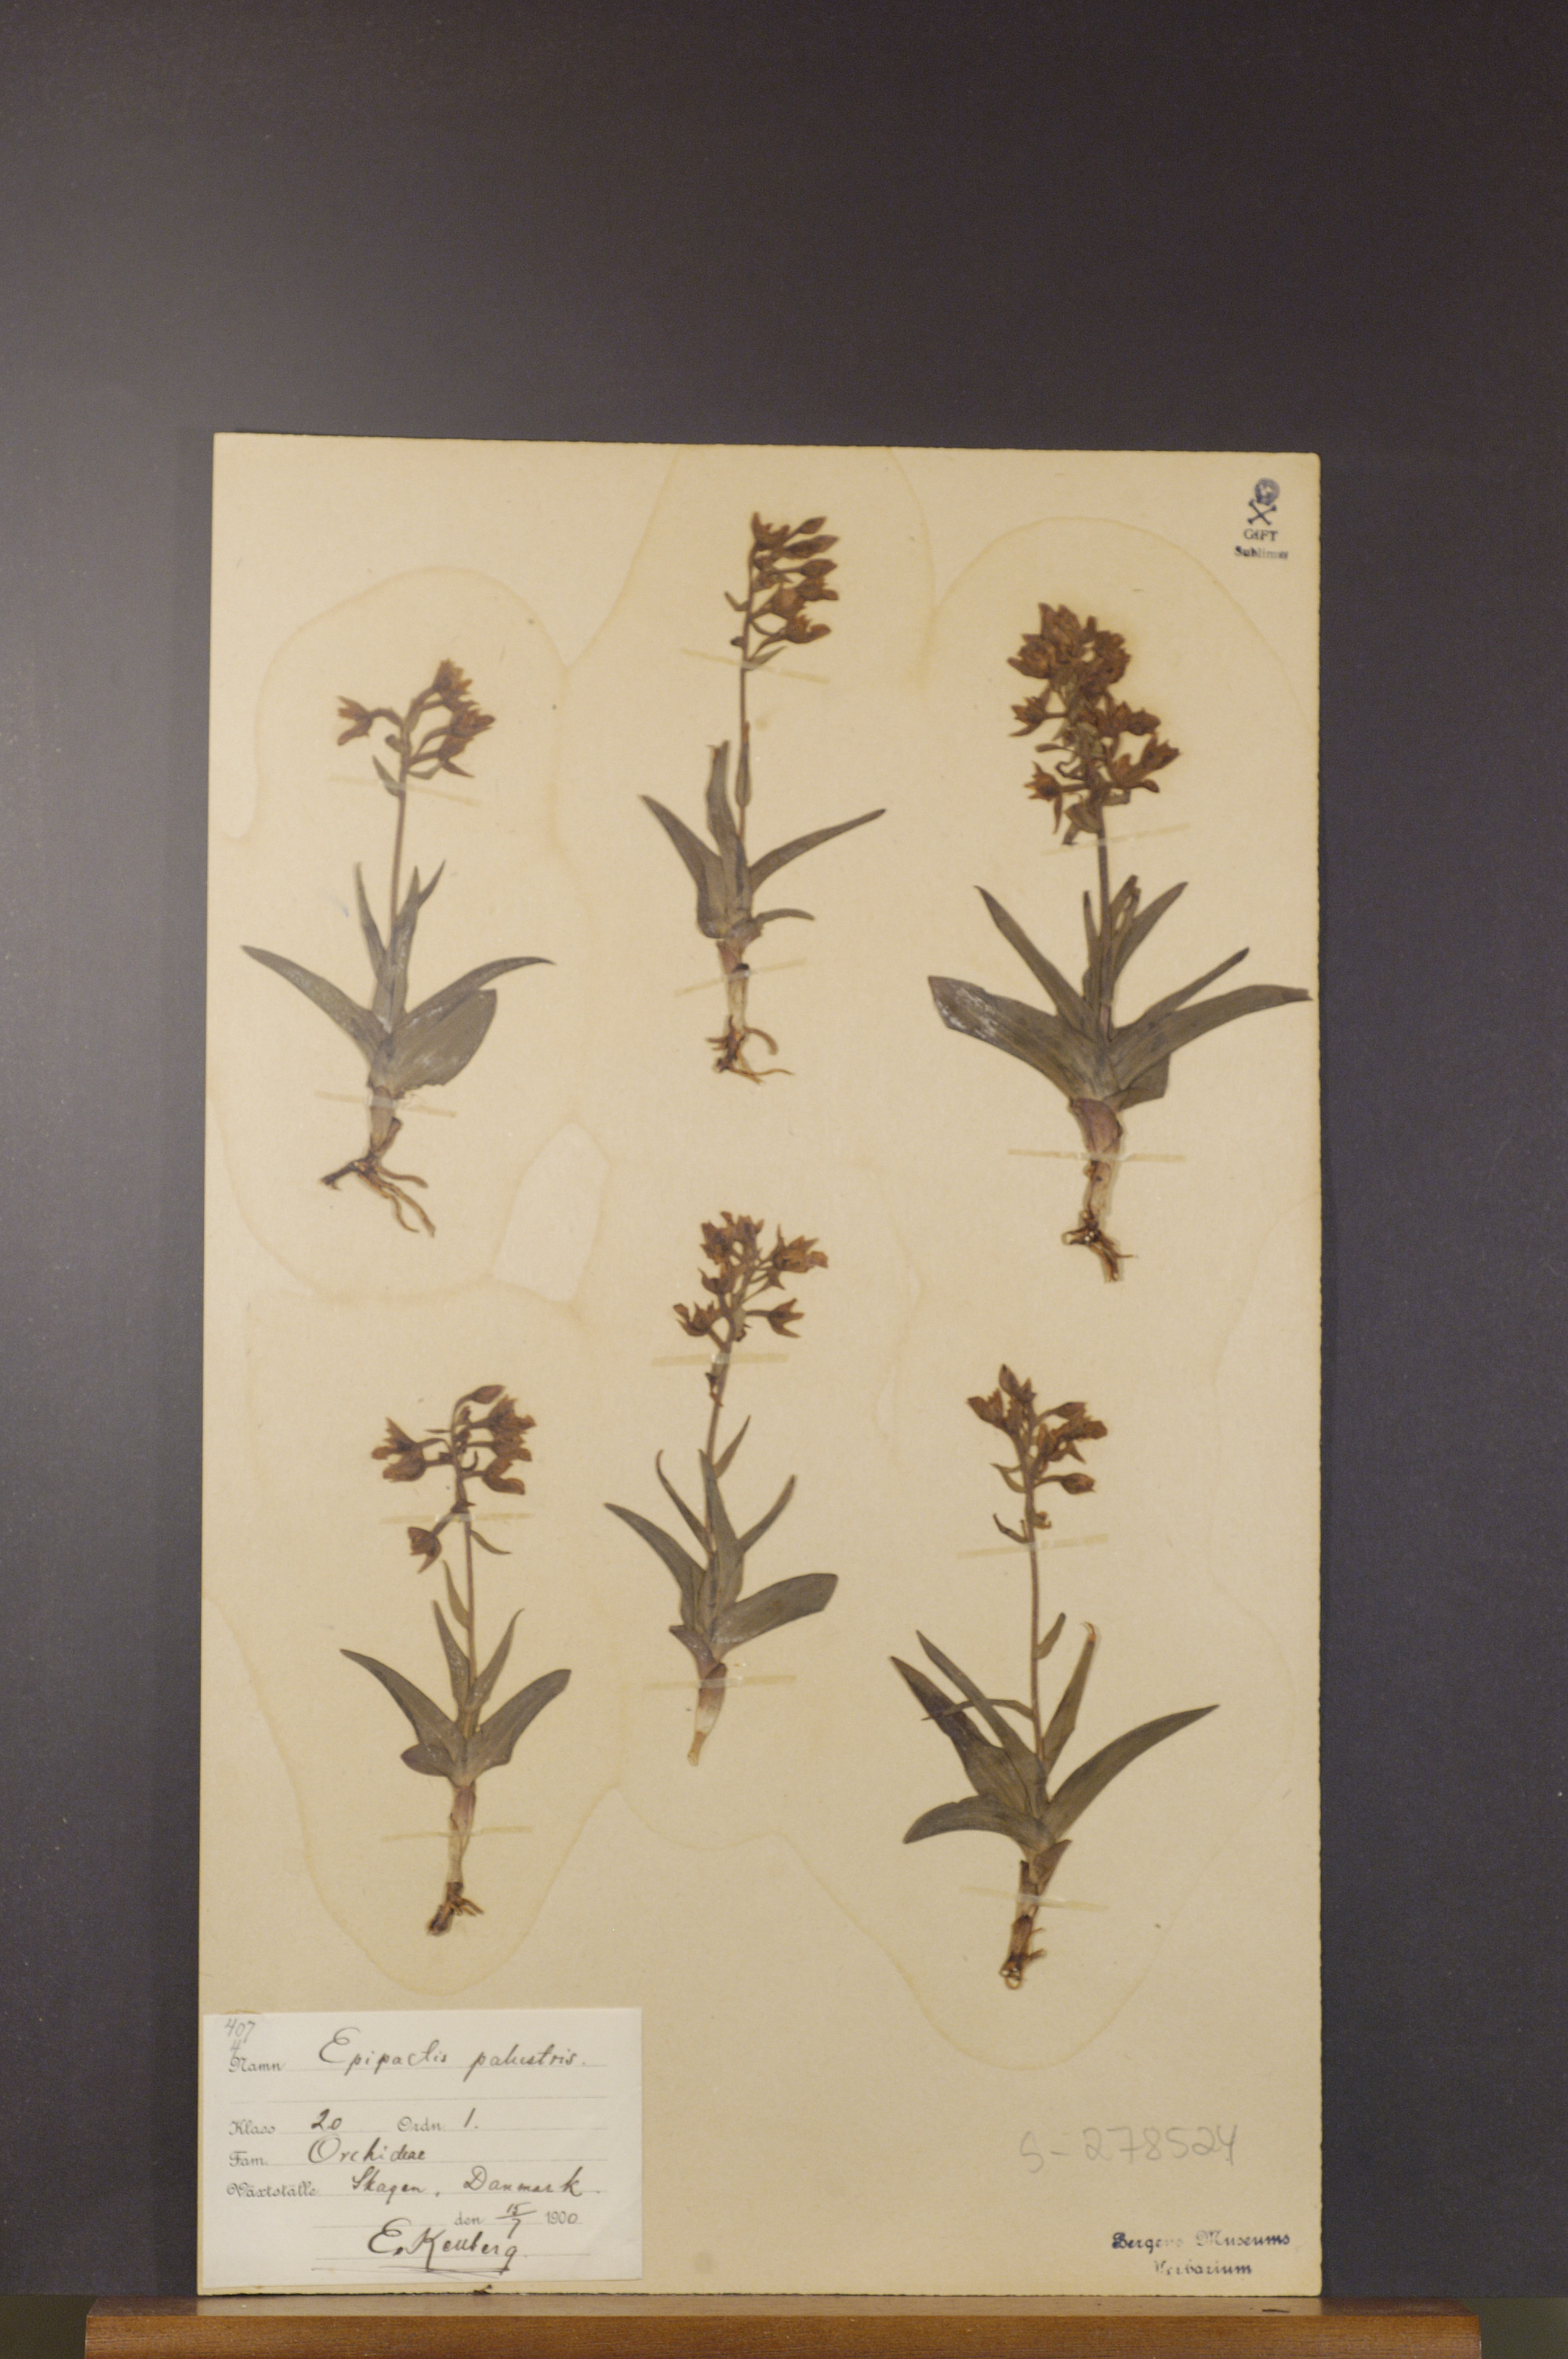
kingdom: Plantae
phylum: Tracheophyta
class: Liliopsida
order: Asparagales
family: Orchidaceae
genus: Epipactis
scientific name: Epipactis palustris
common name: Marsh helleborine
